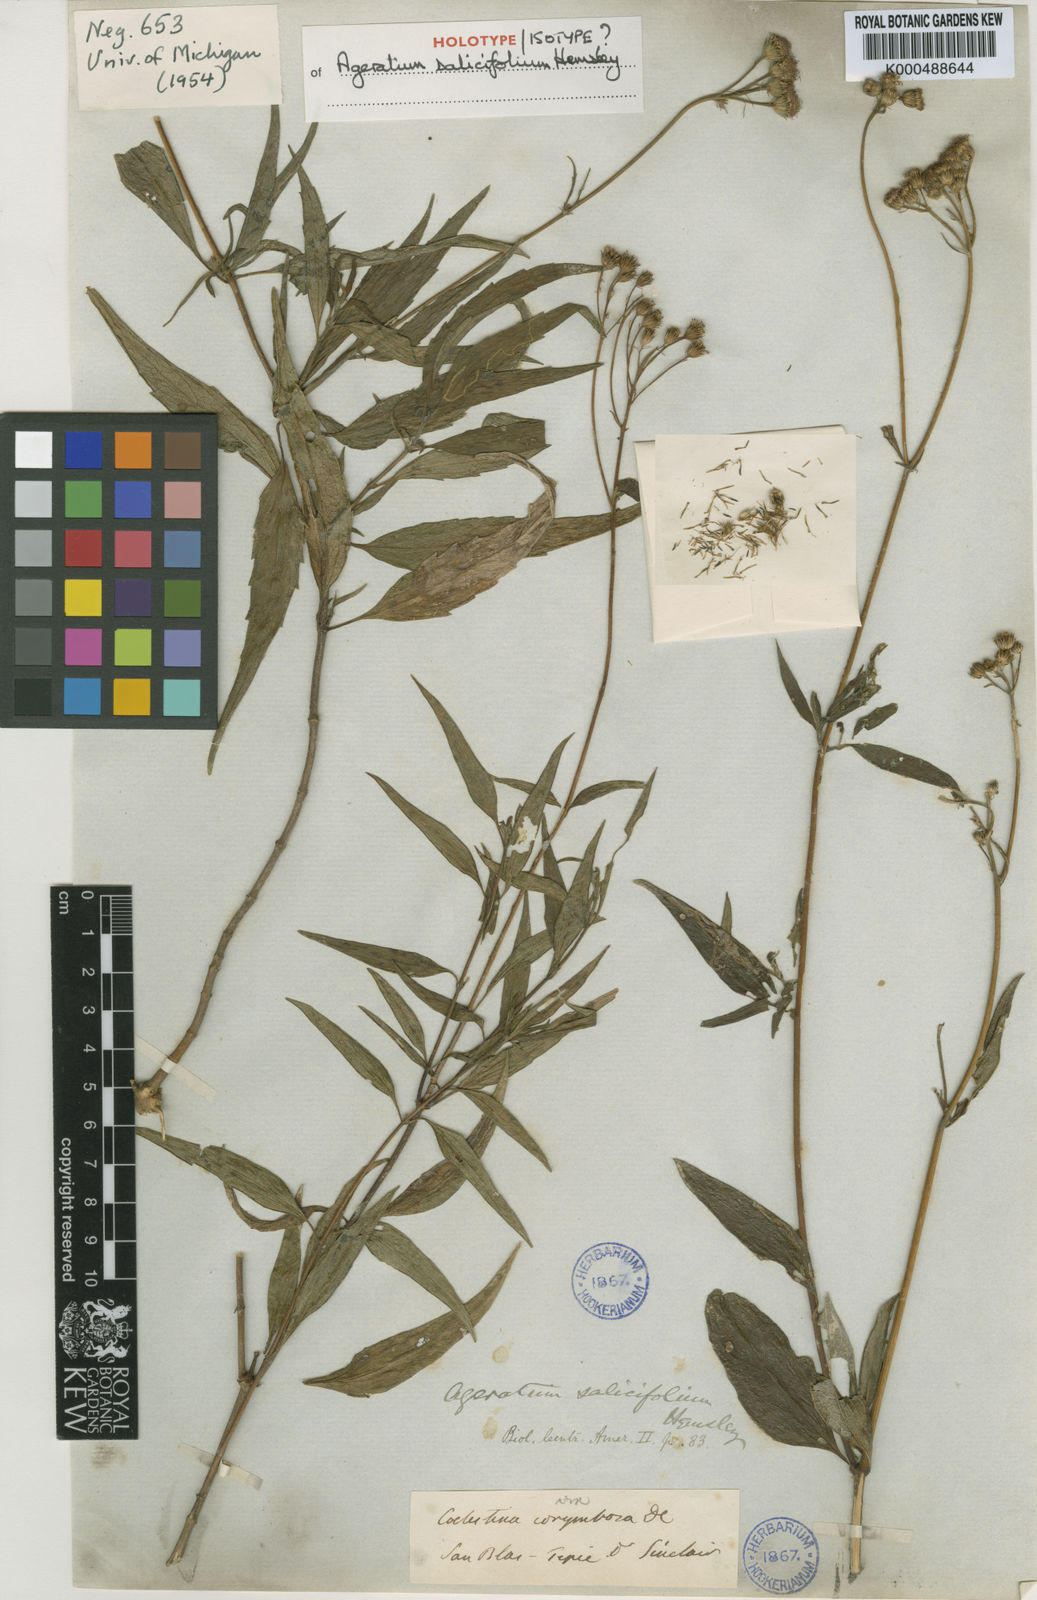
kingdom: Plantae
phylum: Tracheophyta
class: Magnoliopsida
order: Asterales
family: Asteraceae
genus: Ageratum
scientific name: Ageratum corymbosum
